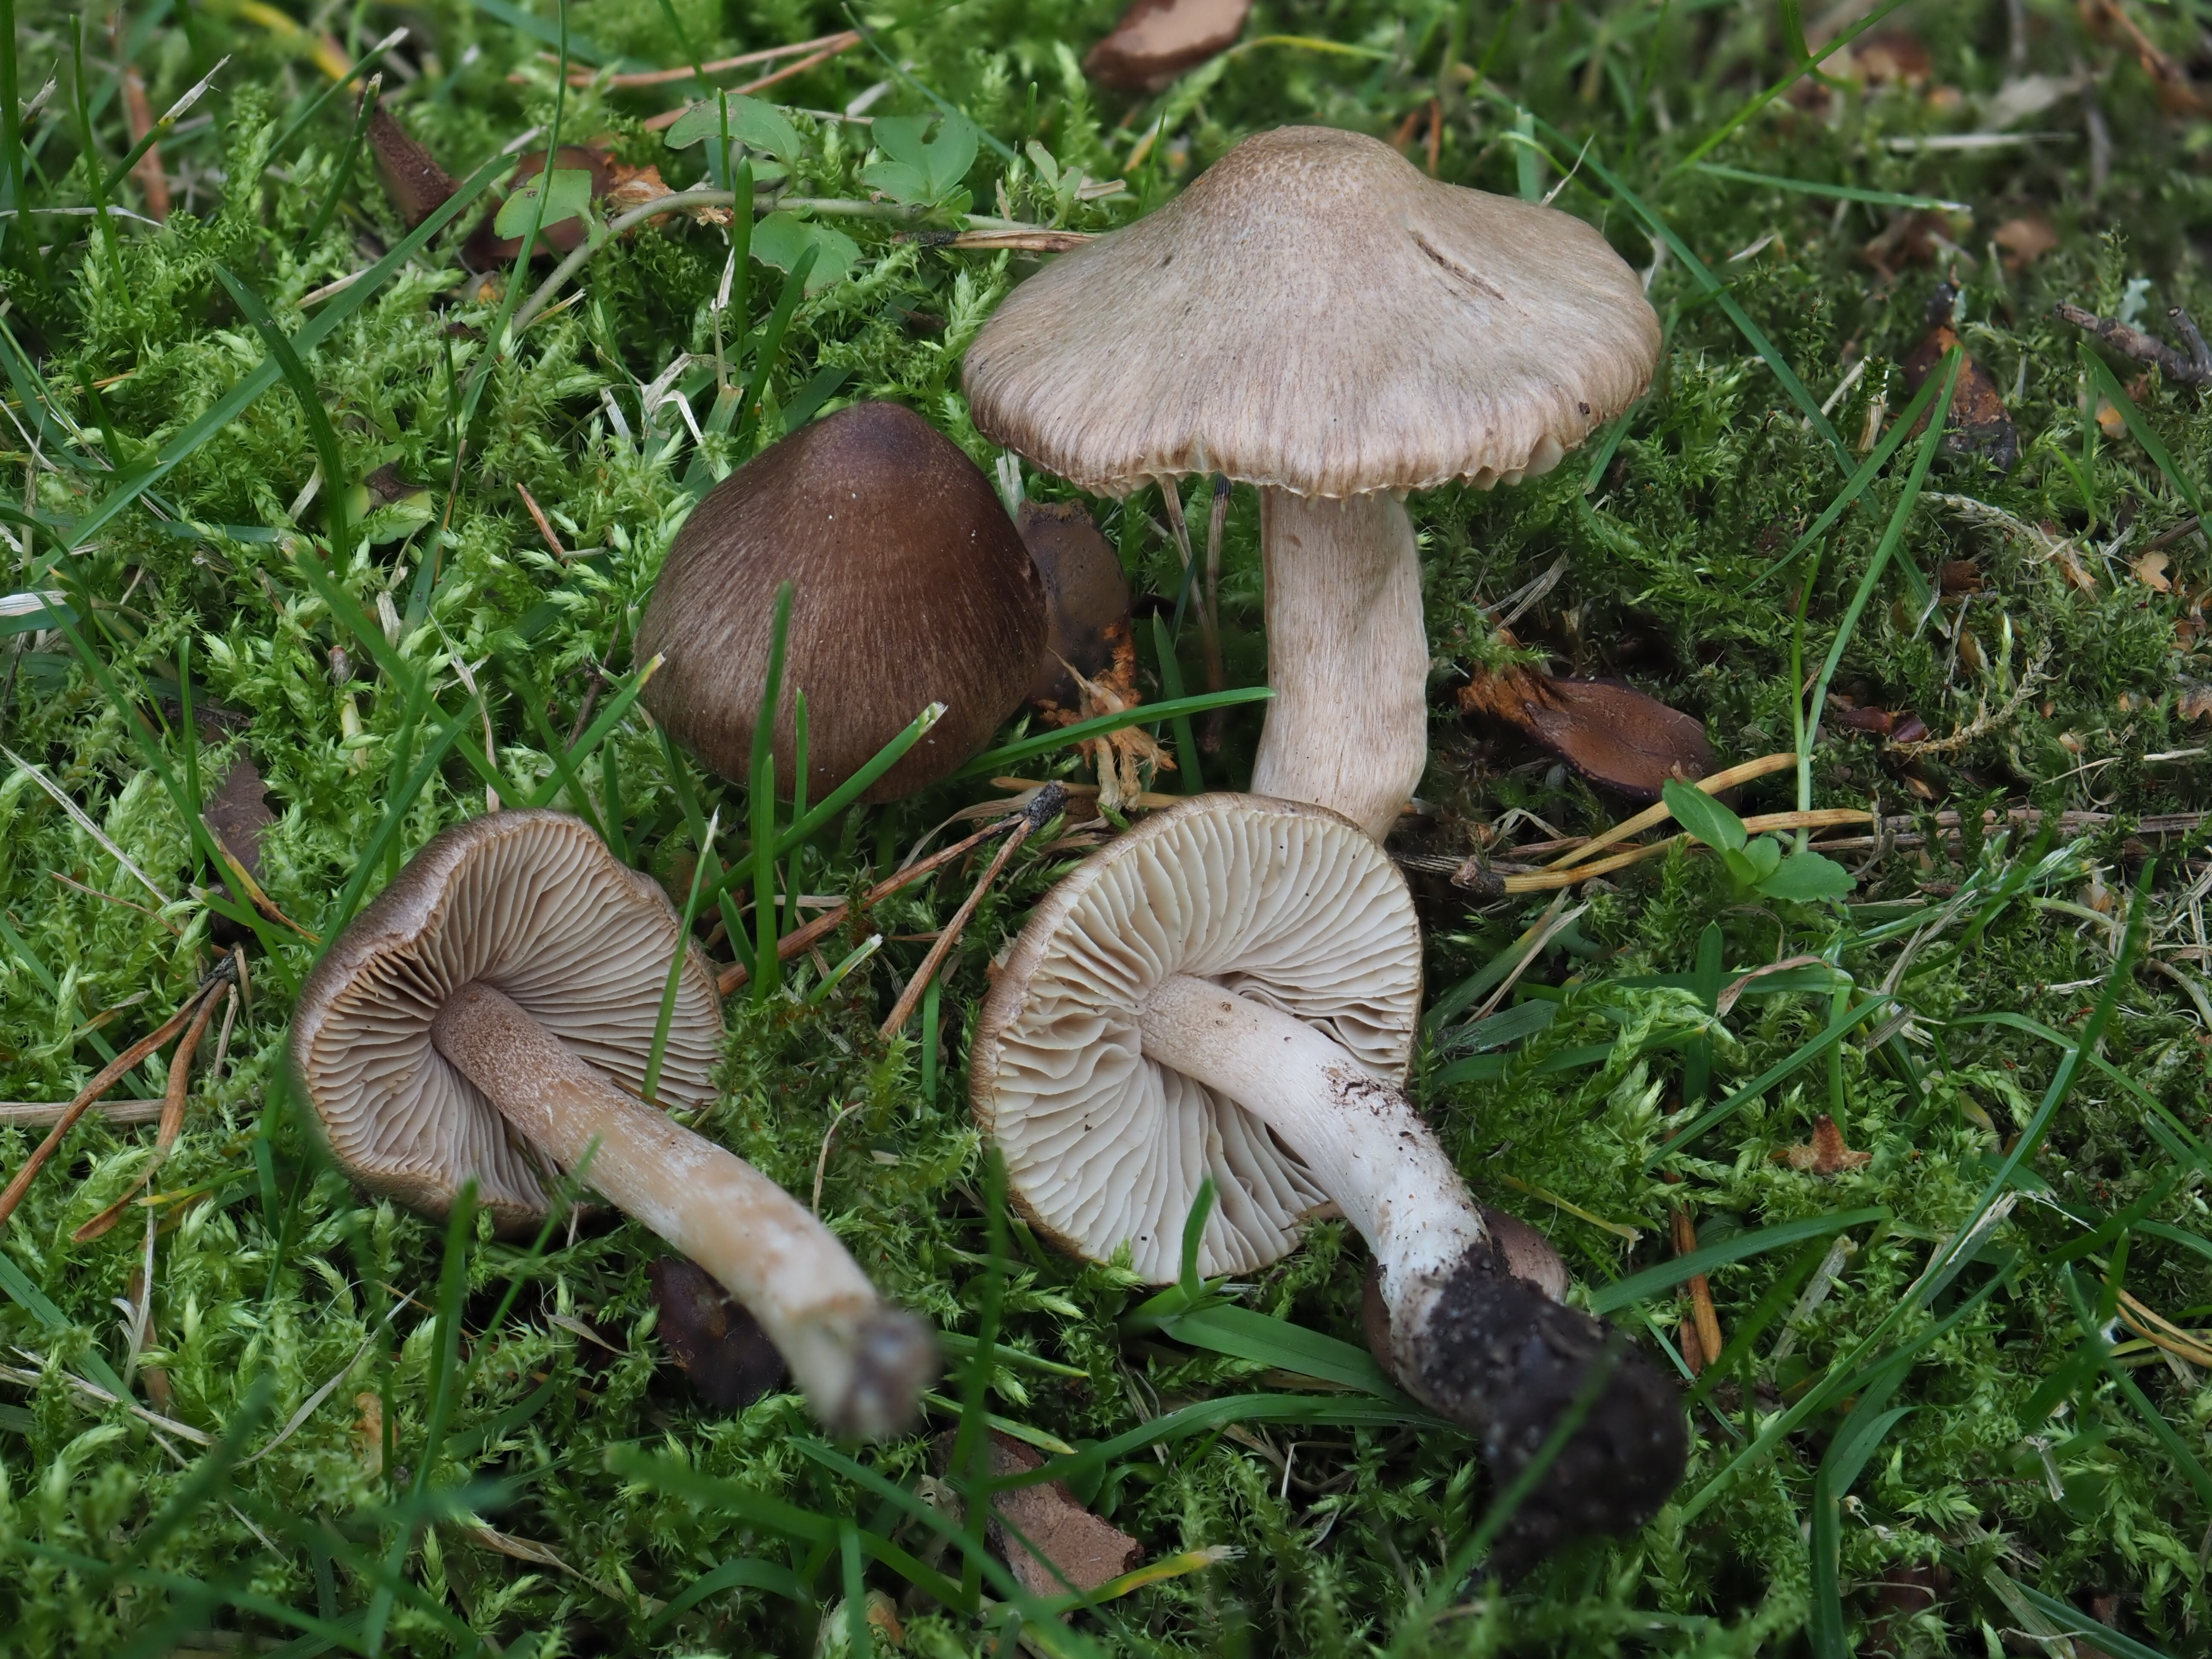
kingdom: Fungi
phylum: Basidiomycota
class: Agaricomycetes
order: Agaricales
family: Inocybaceae
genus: Inocybe
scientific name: Inocybe
